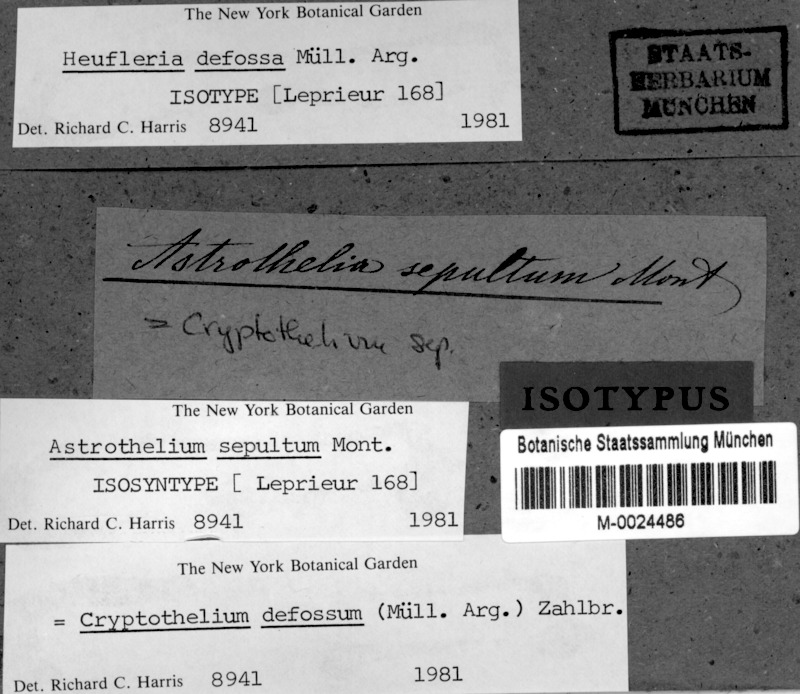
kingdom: Fungi
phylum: Ascomycota
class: Dothideomycetes
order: Trypetheliales
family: Trypetheliaceae
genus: Astrothelium
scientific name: Astrothelium defossum
